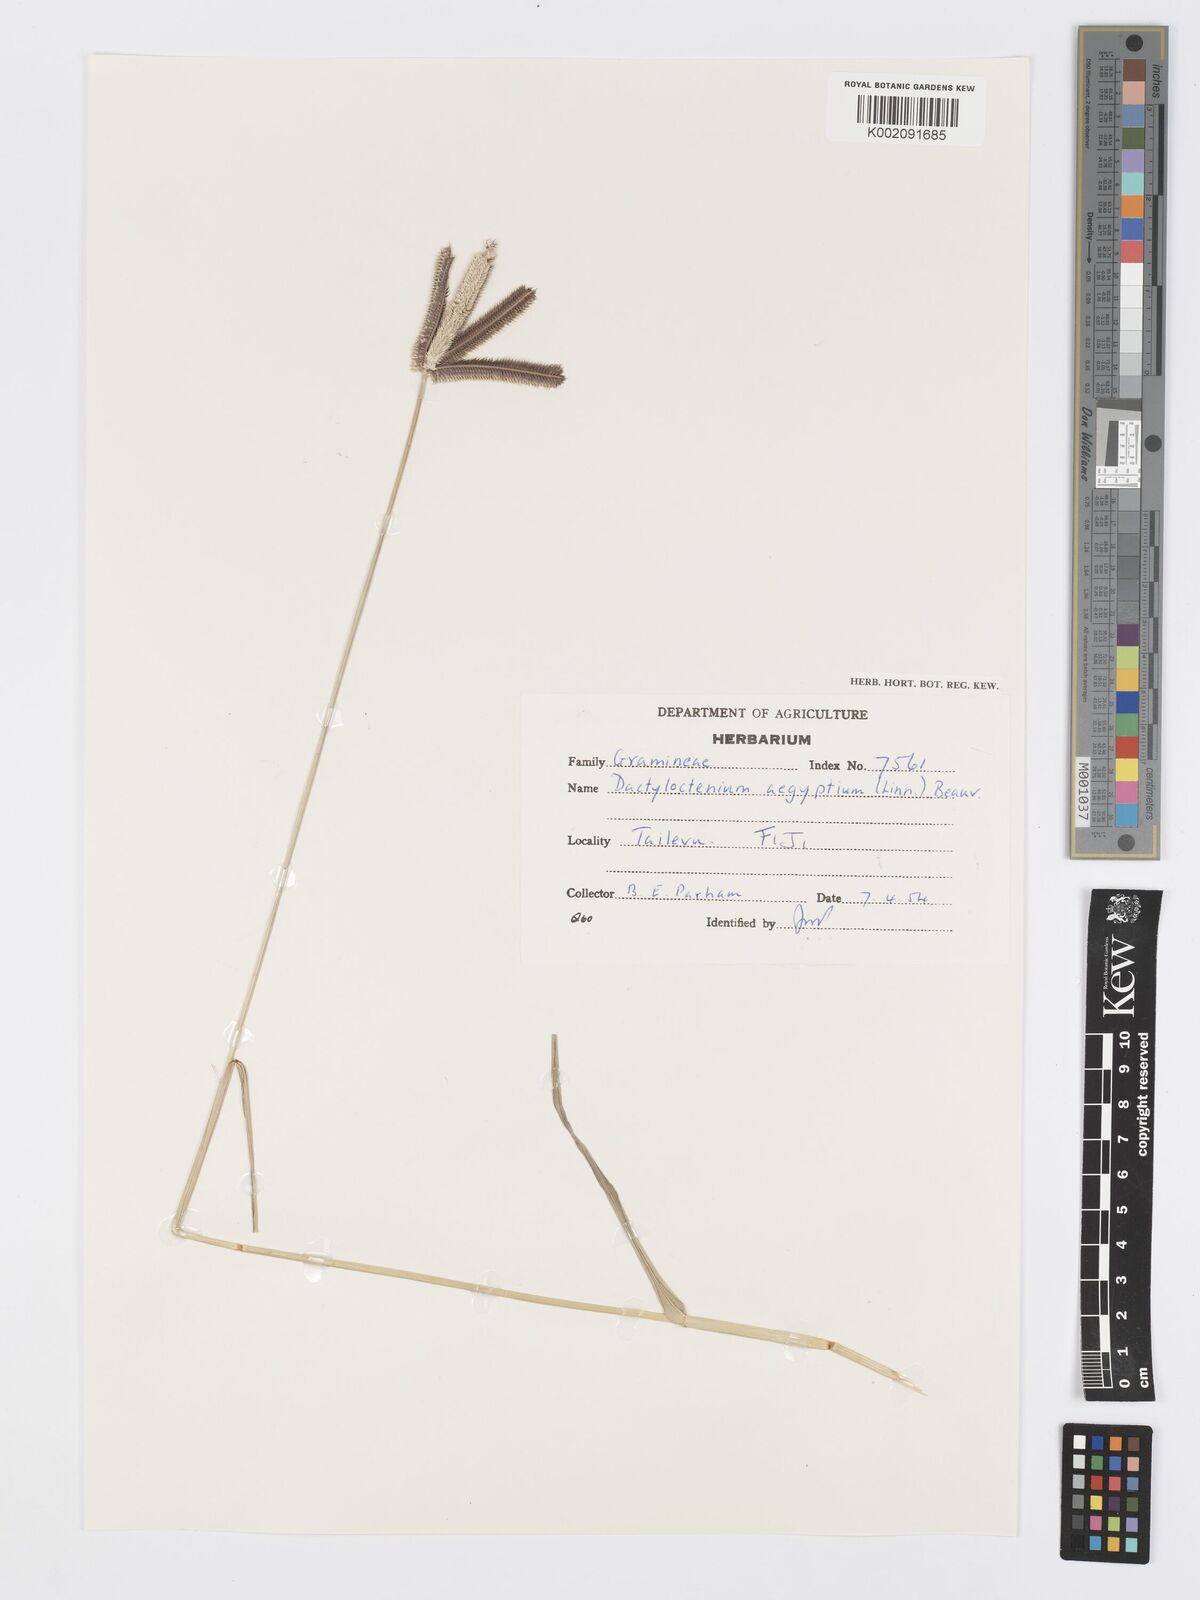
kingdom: Plantae
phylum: Tracheophyta
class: Liliopsida
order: Poales
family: Poaceae
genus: Dactyloctenium
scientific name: Dactyloctenium aegyptium
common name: Egyptian grass
